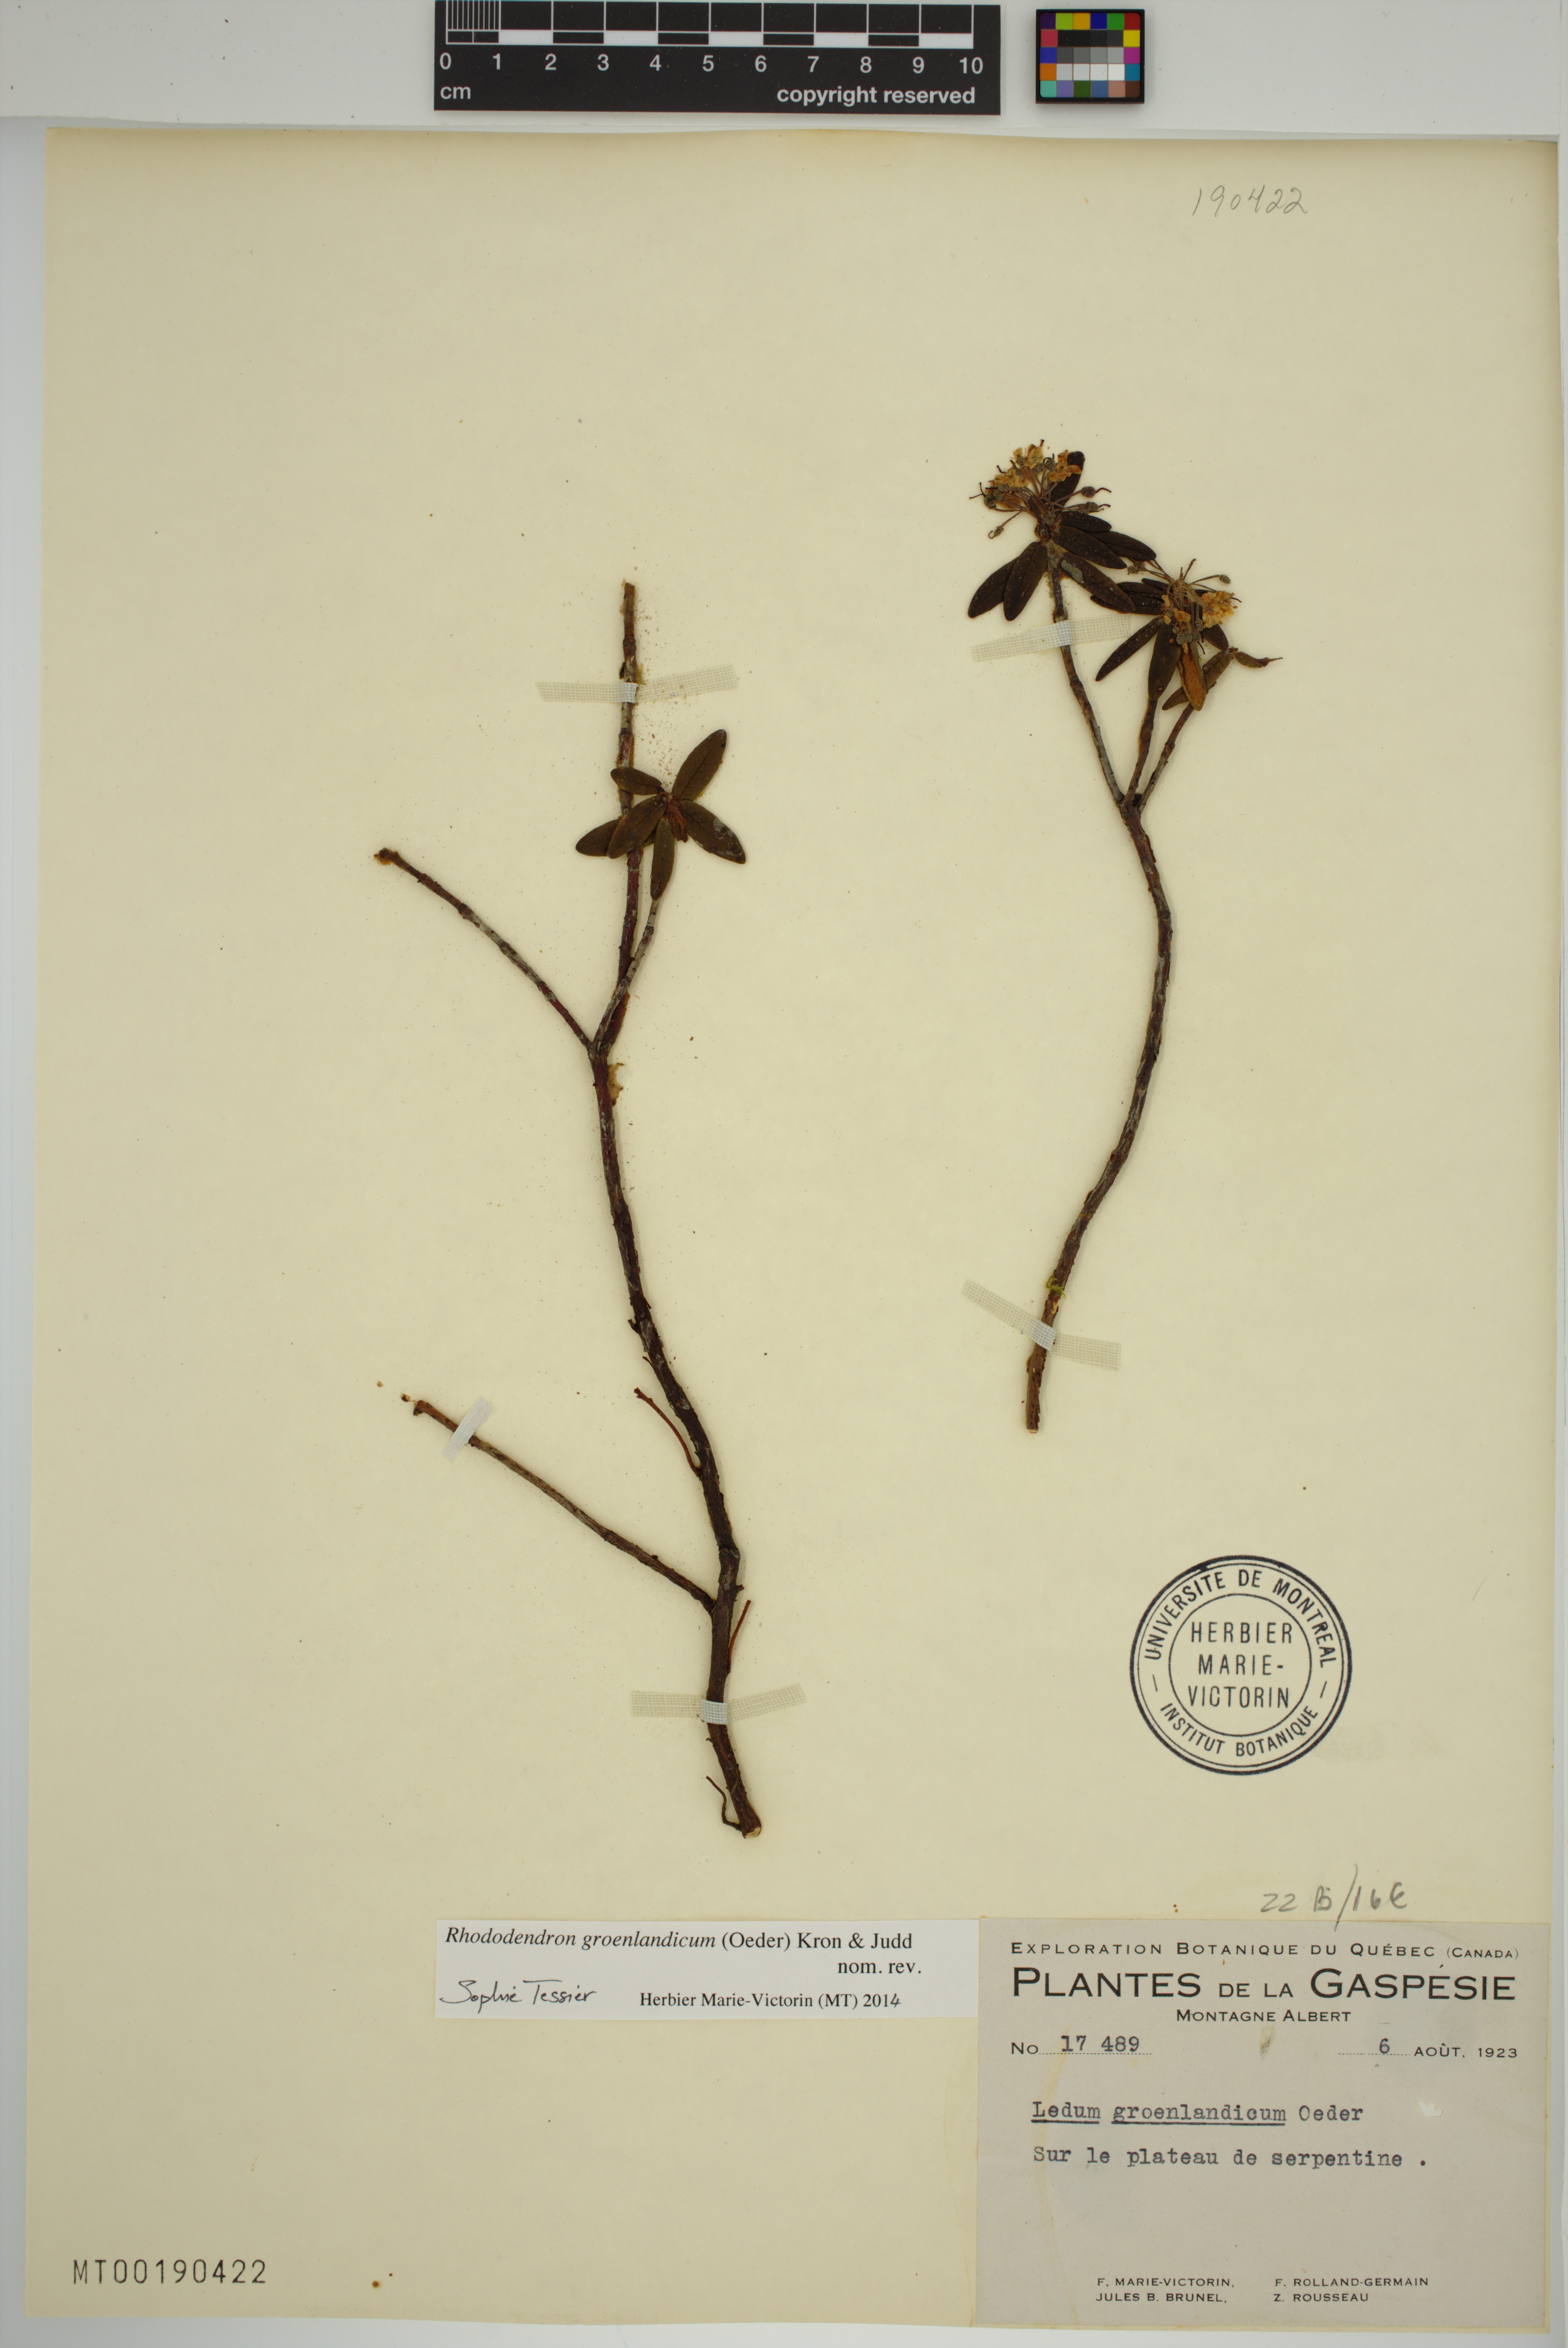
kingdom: Plantae
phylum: Tracheophyta
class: Magnoliopsida
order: Ericales
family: Ericaceae
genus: Rhododendron
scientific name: Rhododendron groenlandicum
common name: Bog labrador tea
